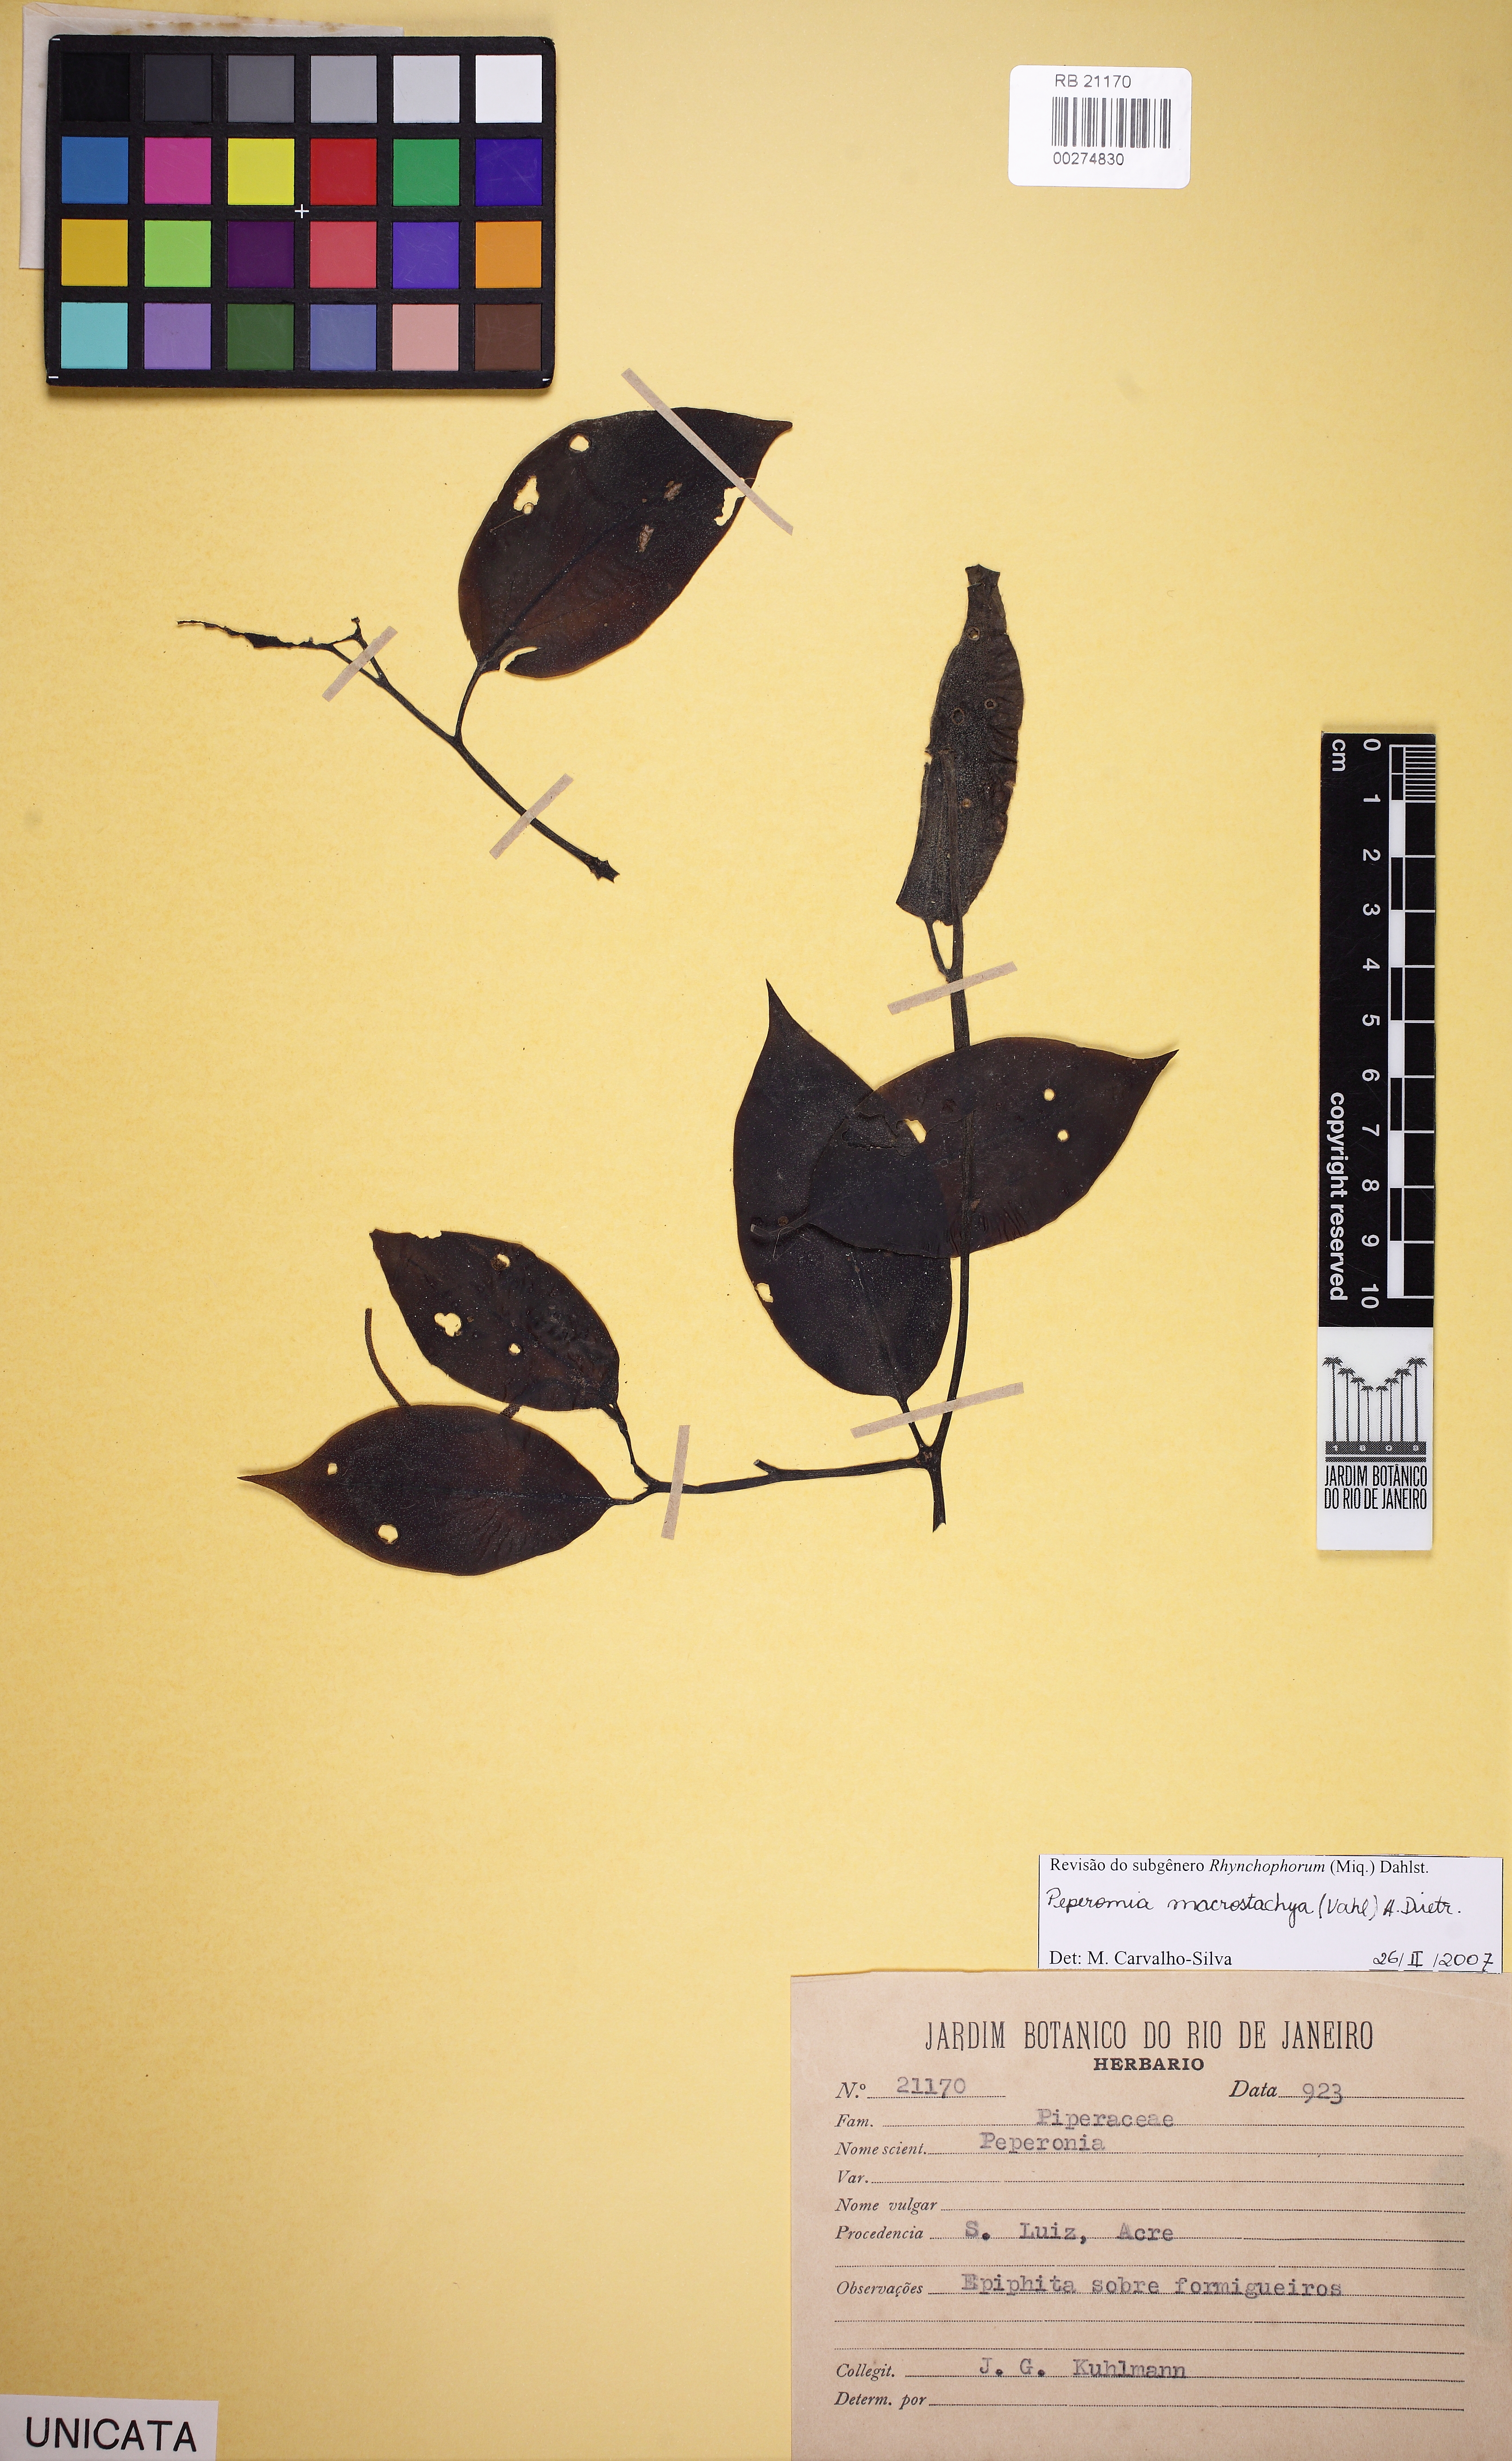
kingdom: Plantae
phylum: Tracheophyta
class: Magnoliopsida
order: Piperales
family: Piperaceae
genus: Peperomia
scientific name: Peperomia macrostachyos
